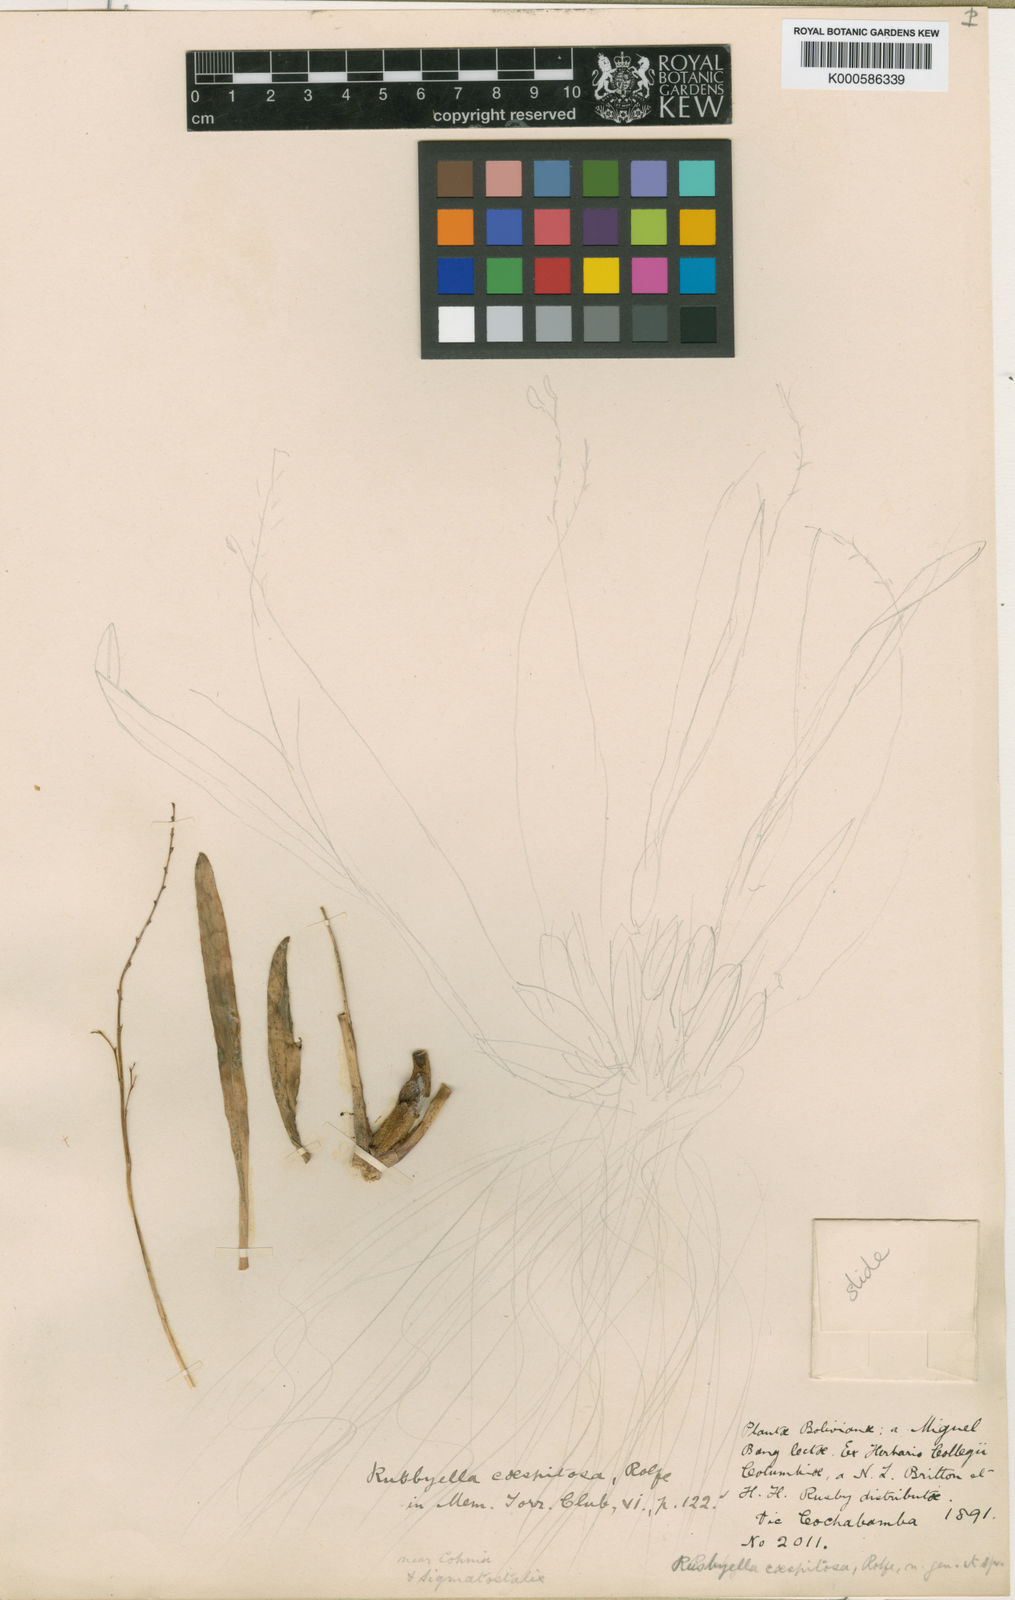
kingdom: Plantae
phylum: Tracheophyta
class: Liliopsida
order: Asparagales
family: Orchidaceae
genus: Cyrtochilum
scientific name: Cyrtochilum
